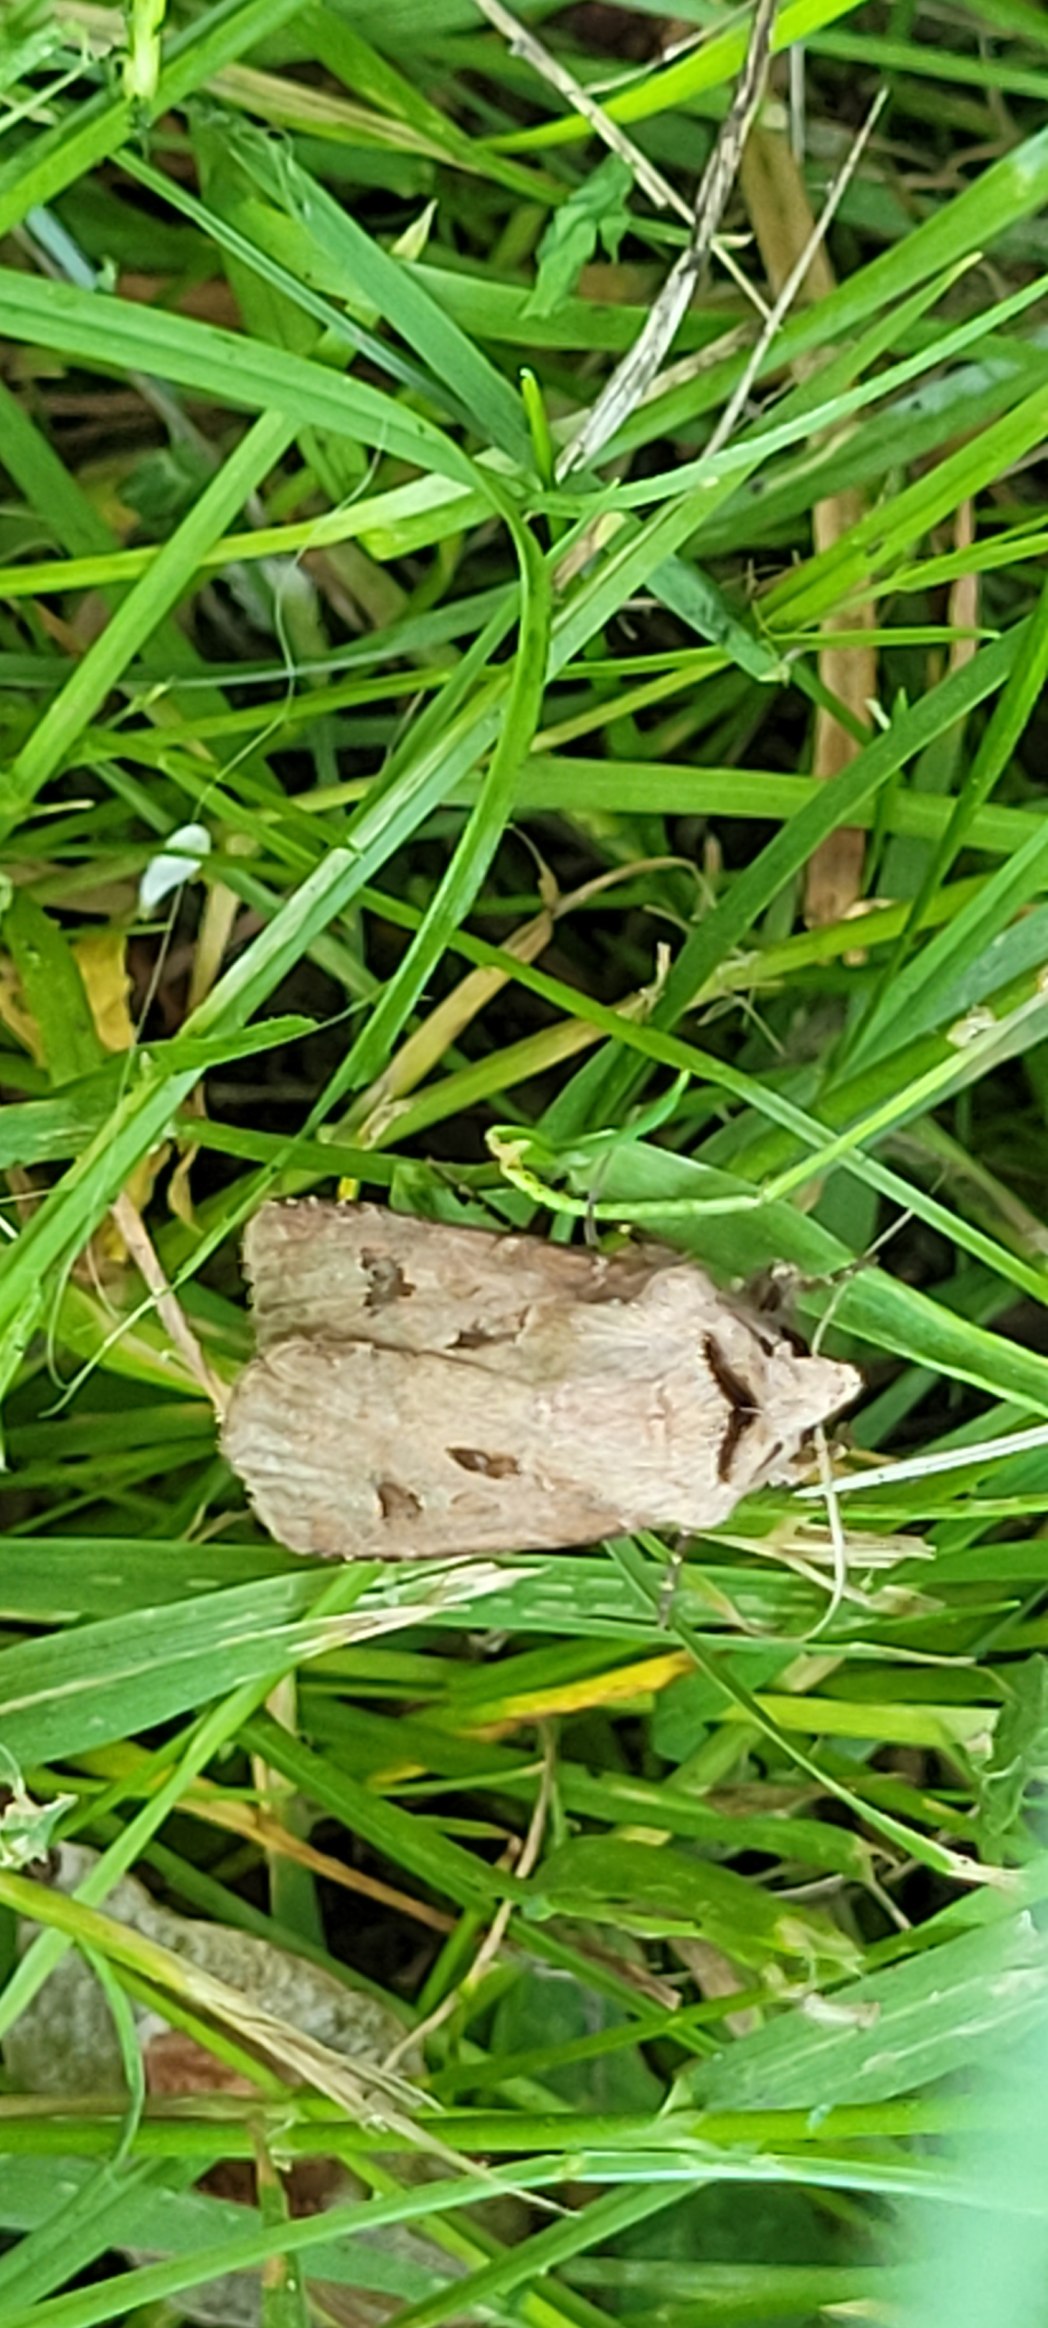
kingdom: Animalia
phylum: Arthropoda
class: Insecta
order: Lepidoptera
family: Noctuidae
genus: Agrotis
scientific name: Agrotis exclamationis
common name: Udråbstegnsugle
